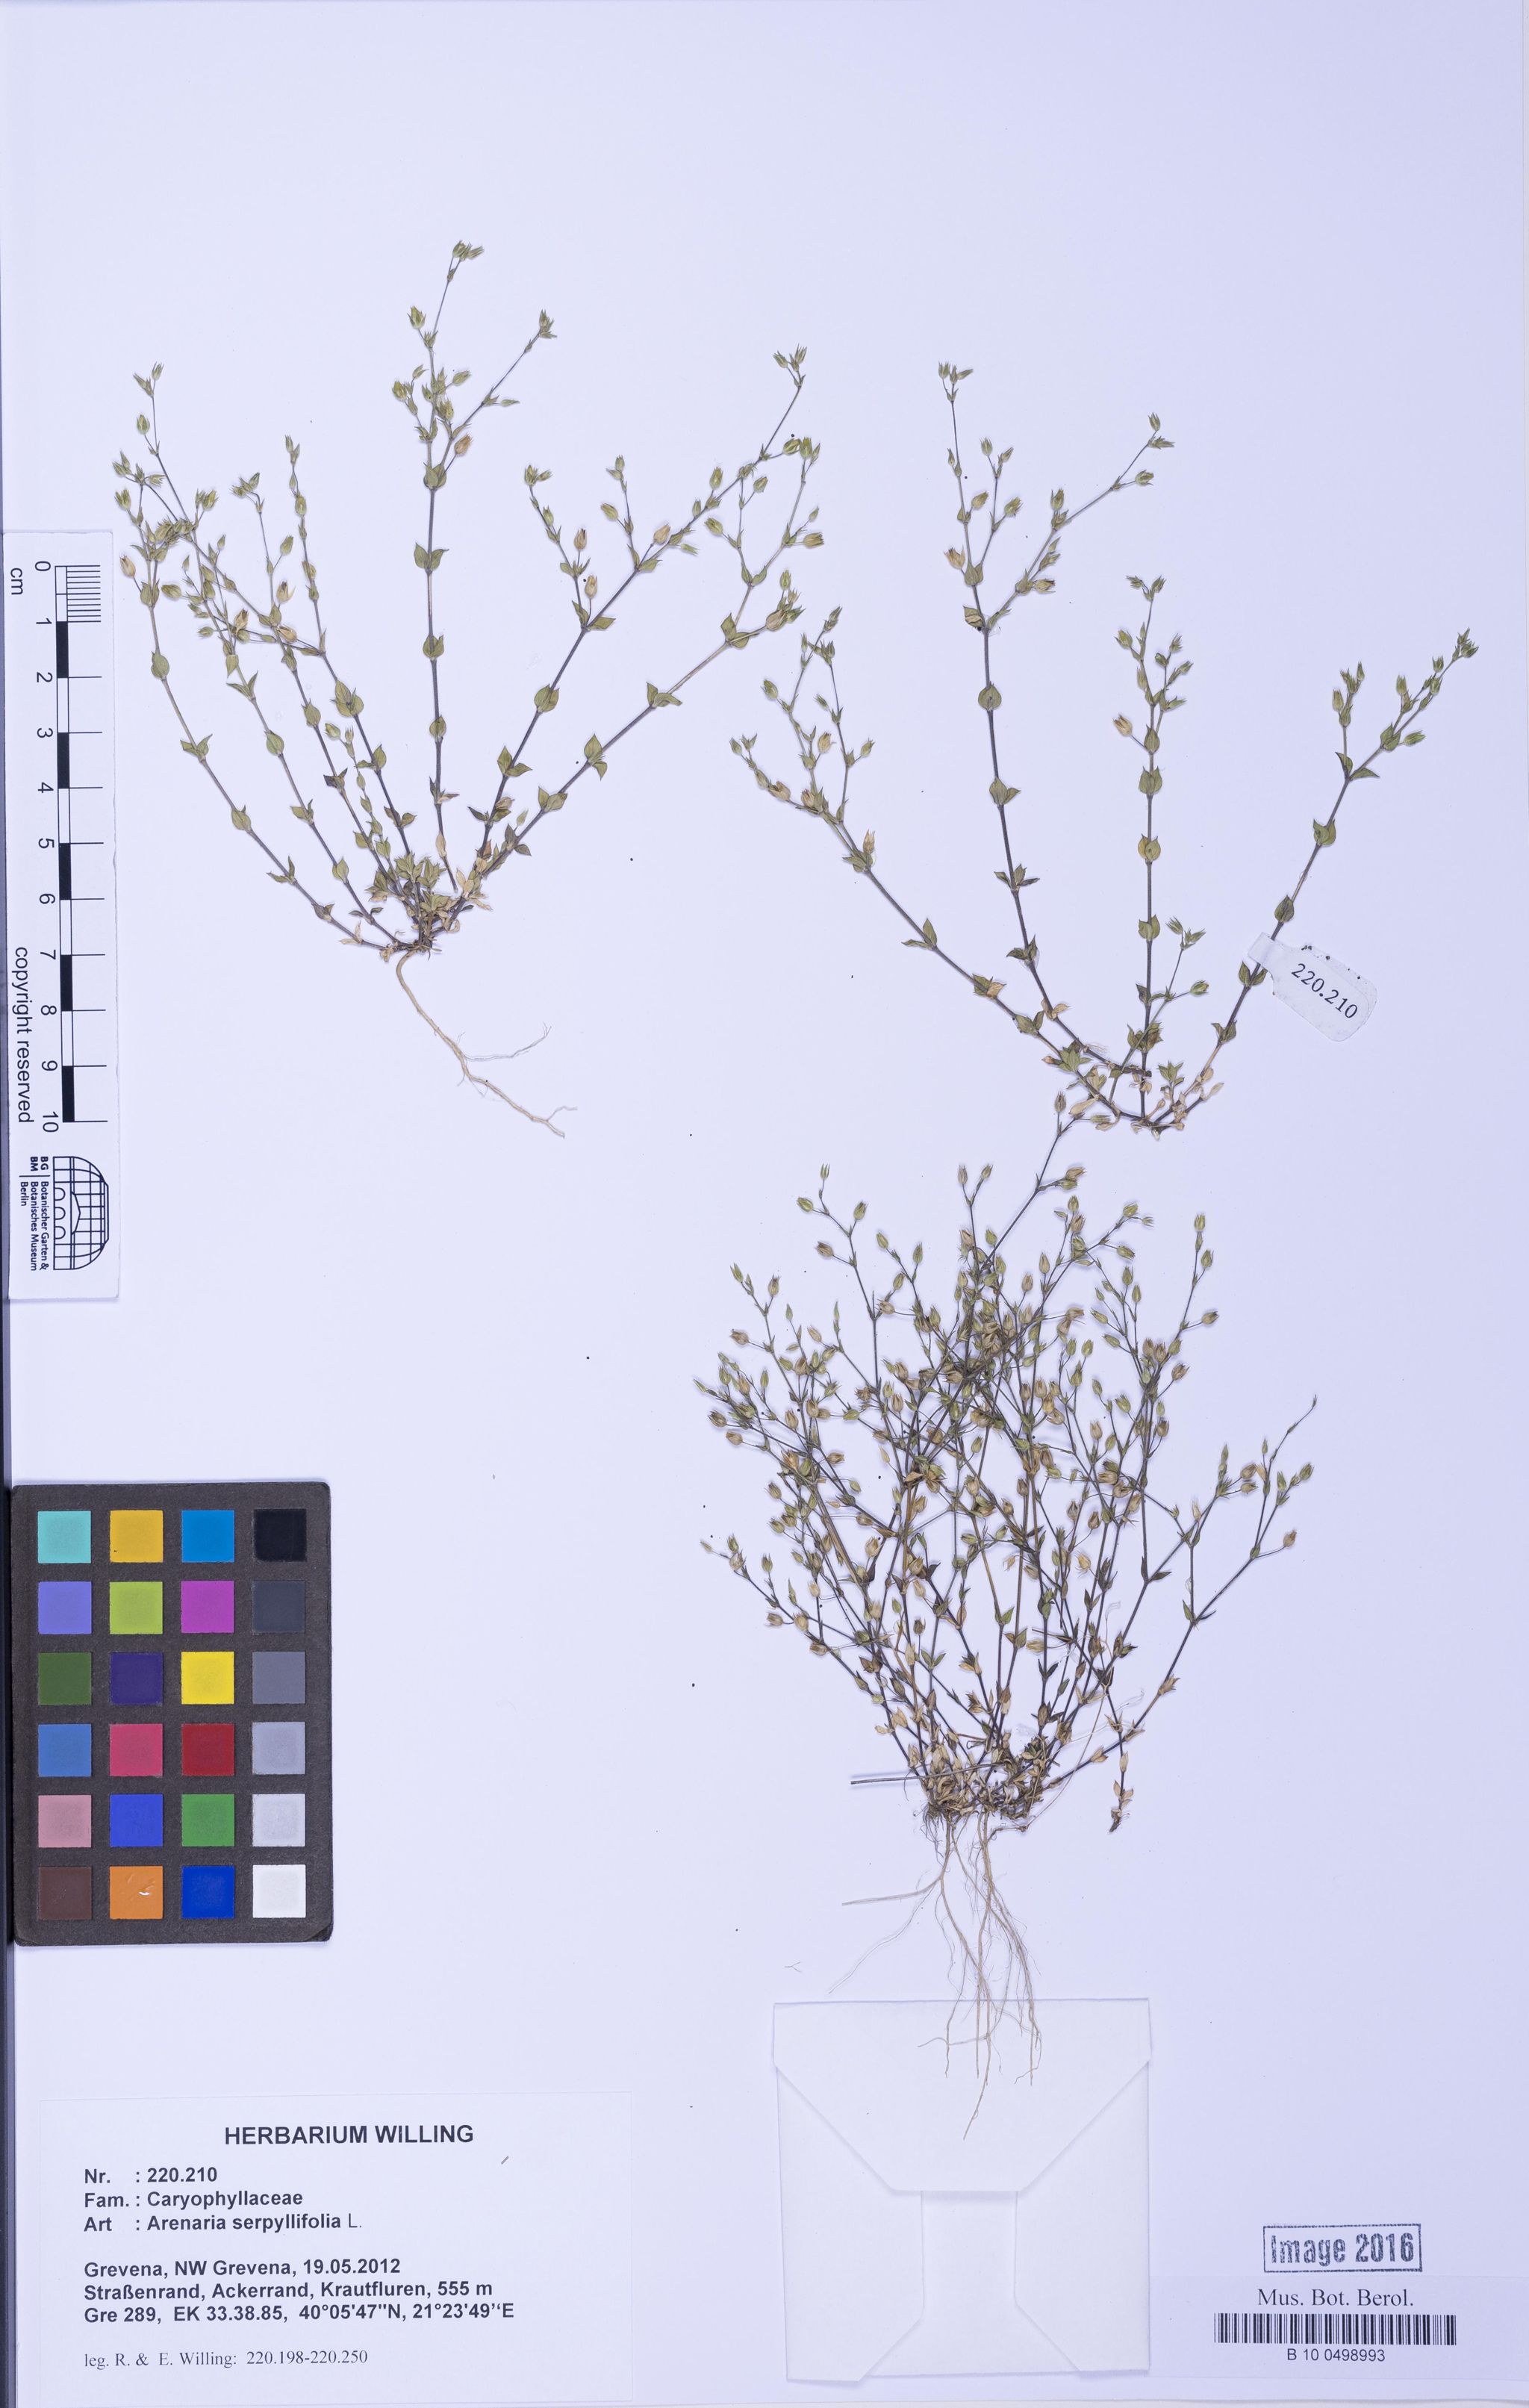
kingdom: Plantae
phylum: Tracheophyta
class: Magnoliopsida
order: Caryophyllales
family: Caryophyllaceae
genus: Arenaria
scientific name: Arenaria serpyllifolia
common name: Thyme-leaved sandwort
